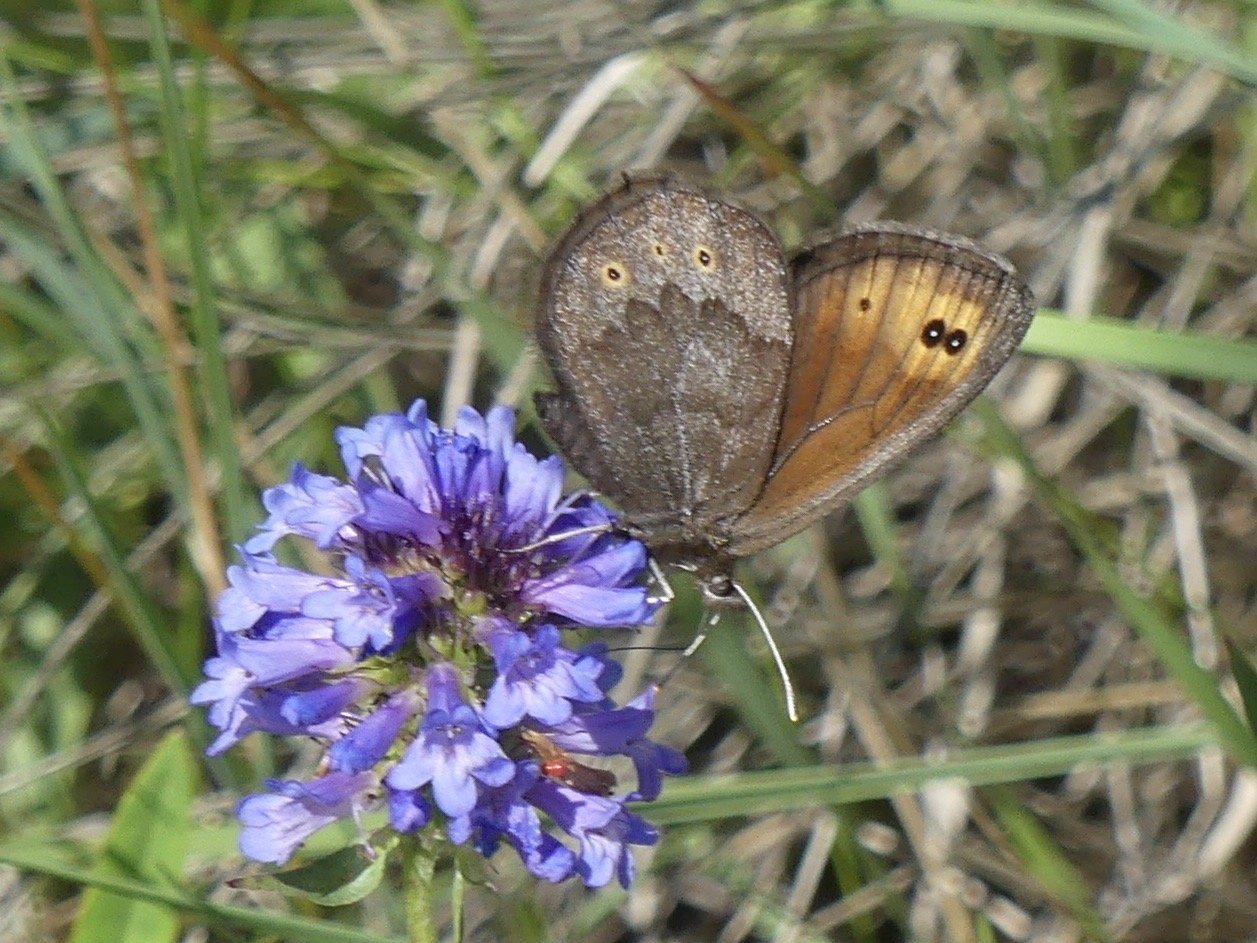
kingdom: Animalia
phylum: Arthropoda
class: Insecta
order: Lepidoptera
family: Nymphalidae
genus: Erebia
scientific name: Erebia epipsodea
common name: Common Alpine
